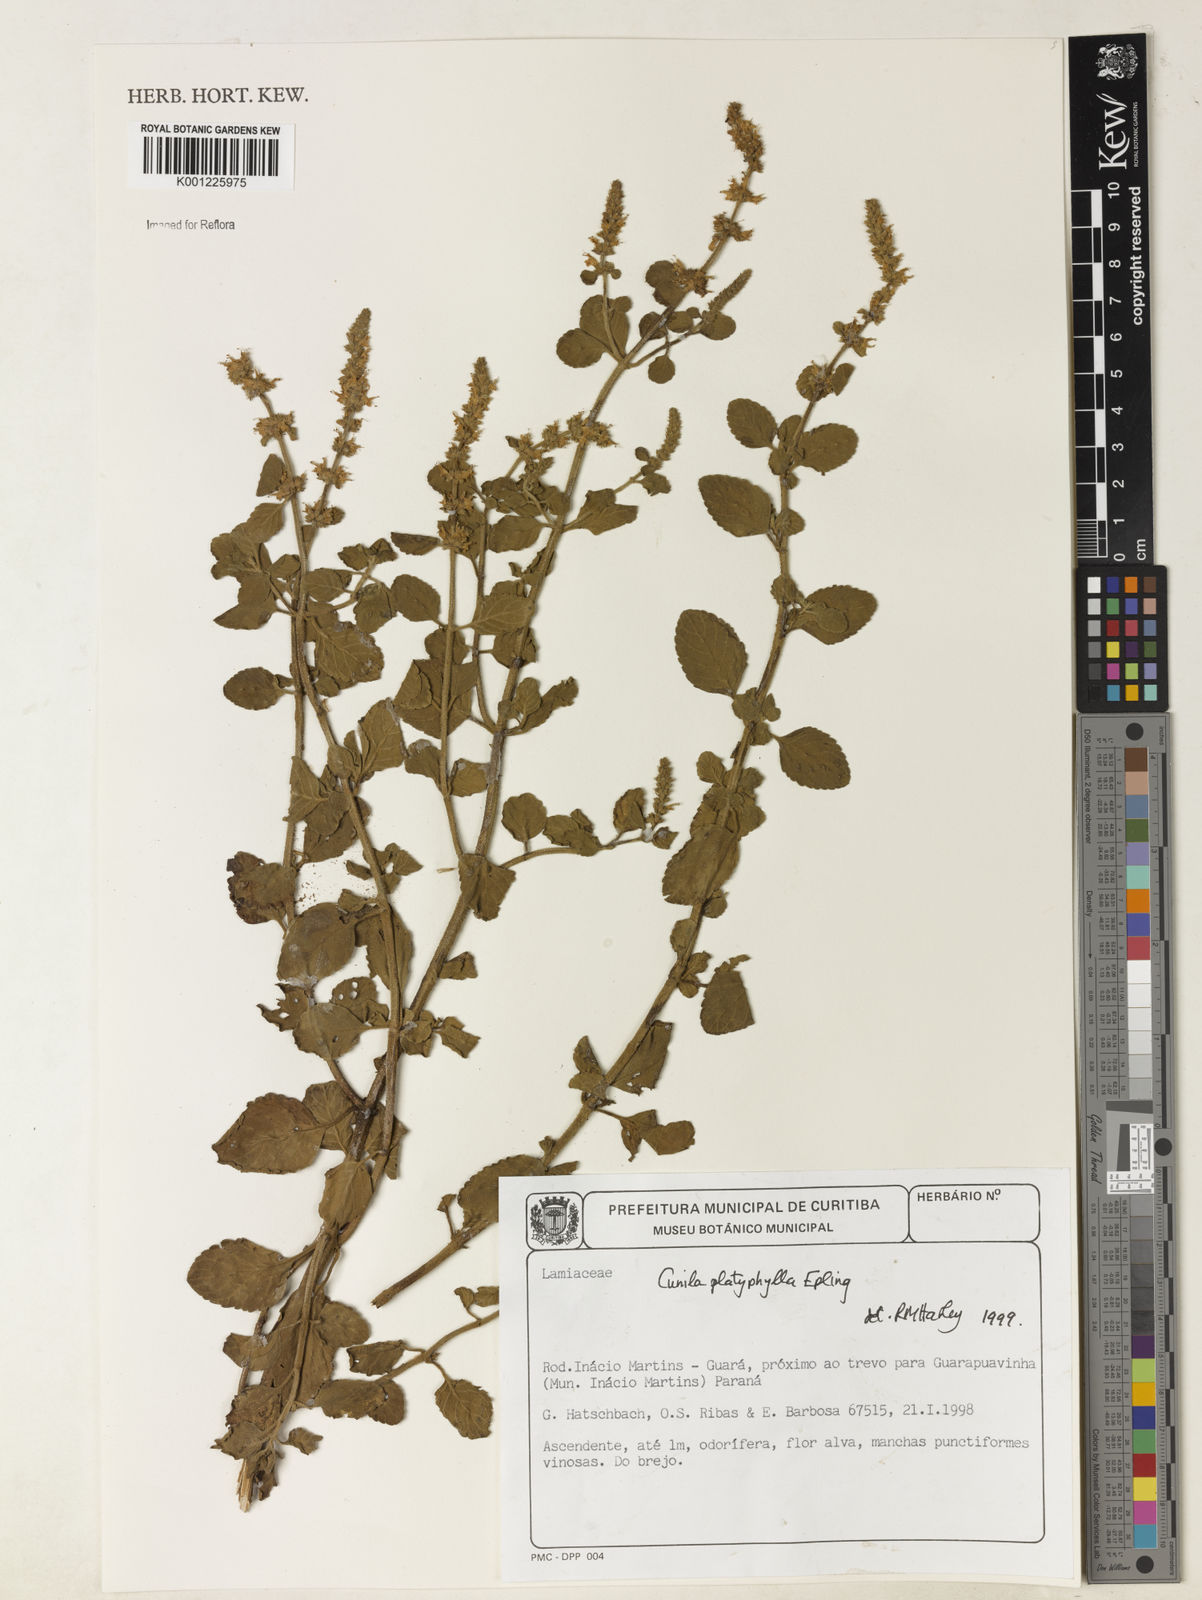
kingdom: Plantae
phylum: Tracheophyta
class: Magnoliopsida
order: Lamiales
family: Lamiaceae
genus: Cunila
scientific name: Cunila platyphylla
